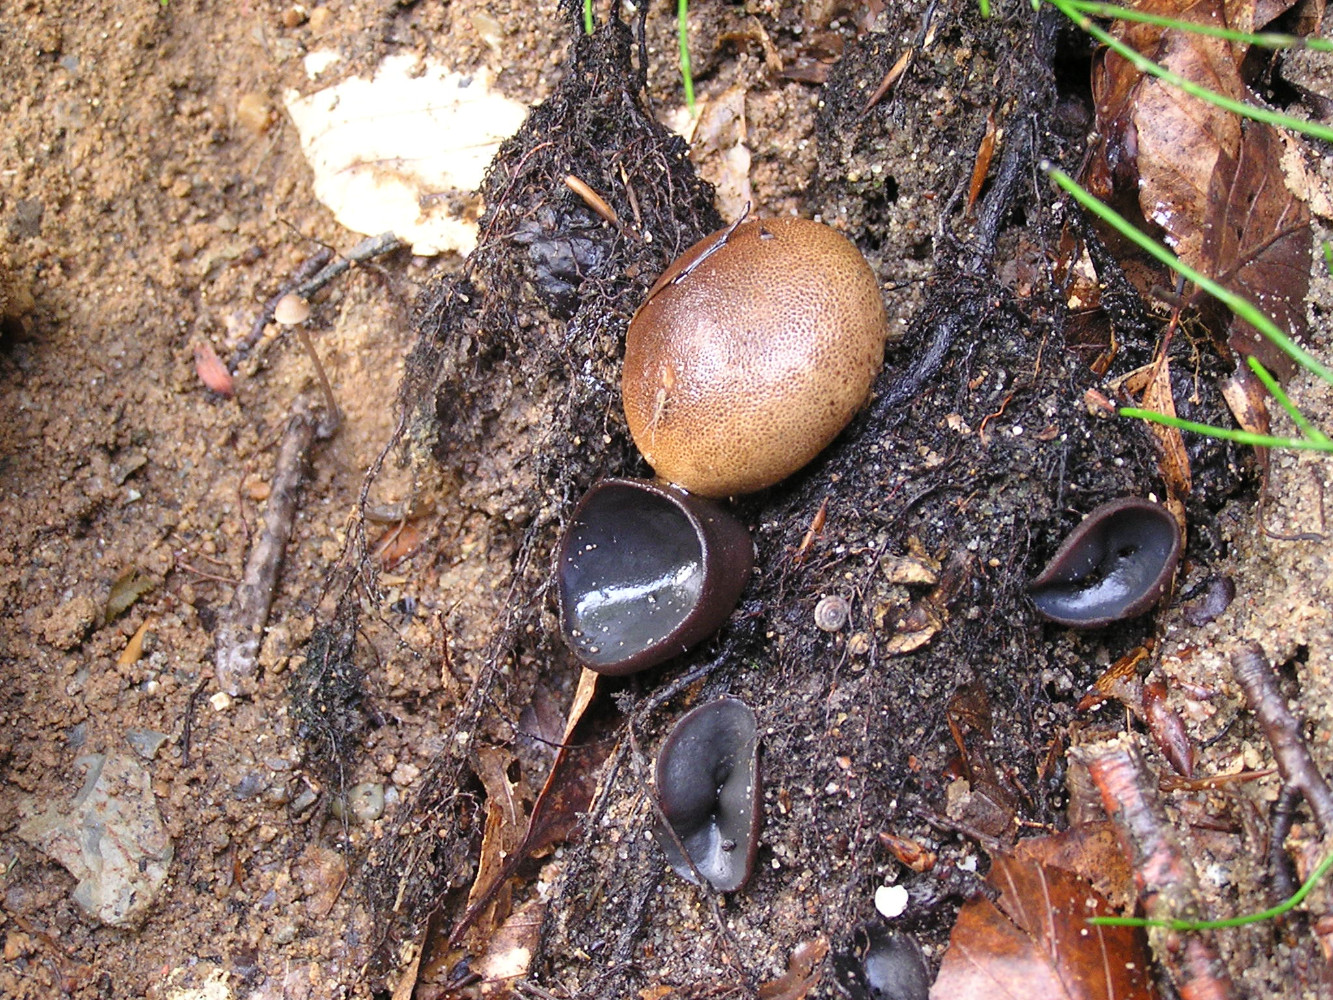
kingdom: Fungi
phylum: Ascomycota
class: Pezizomycetes
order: Pezizales
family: Pezizaceae
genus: Peziza
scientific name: Peziza saniosa
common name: blåmælket bægersvamp
